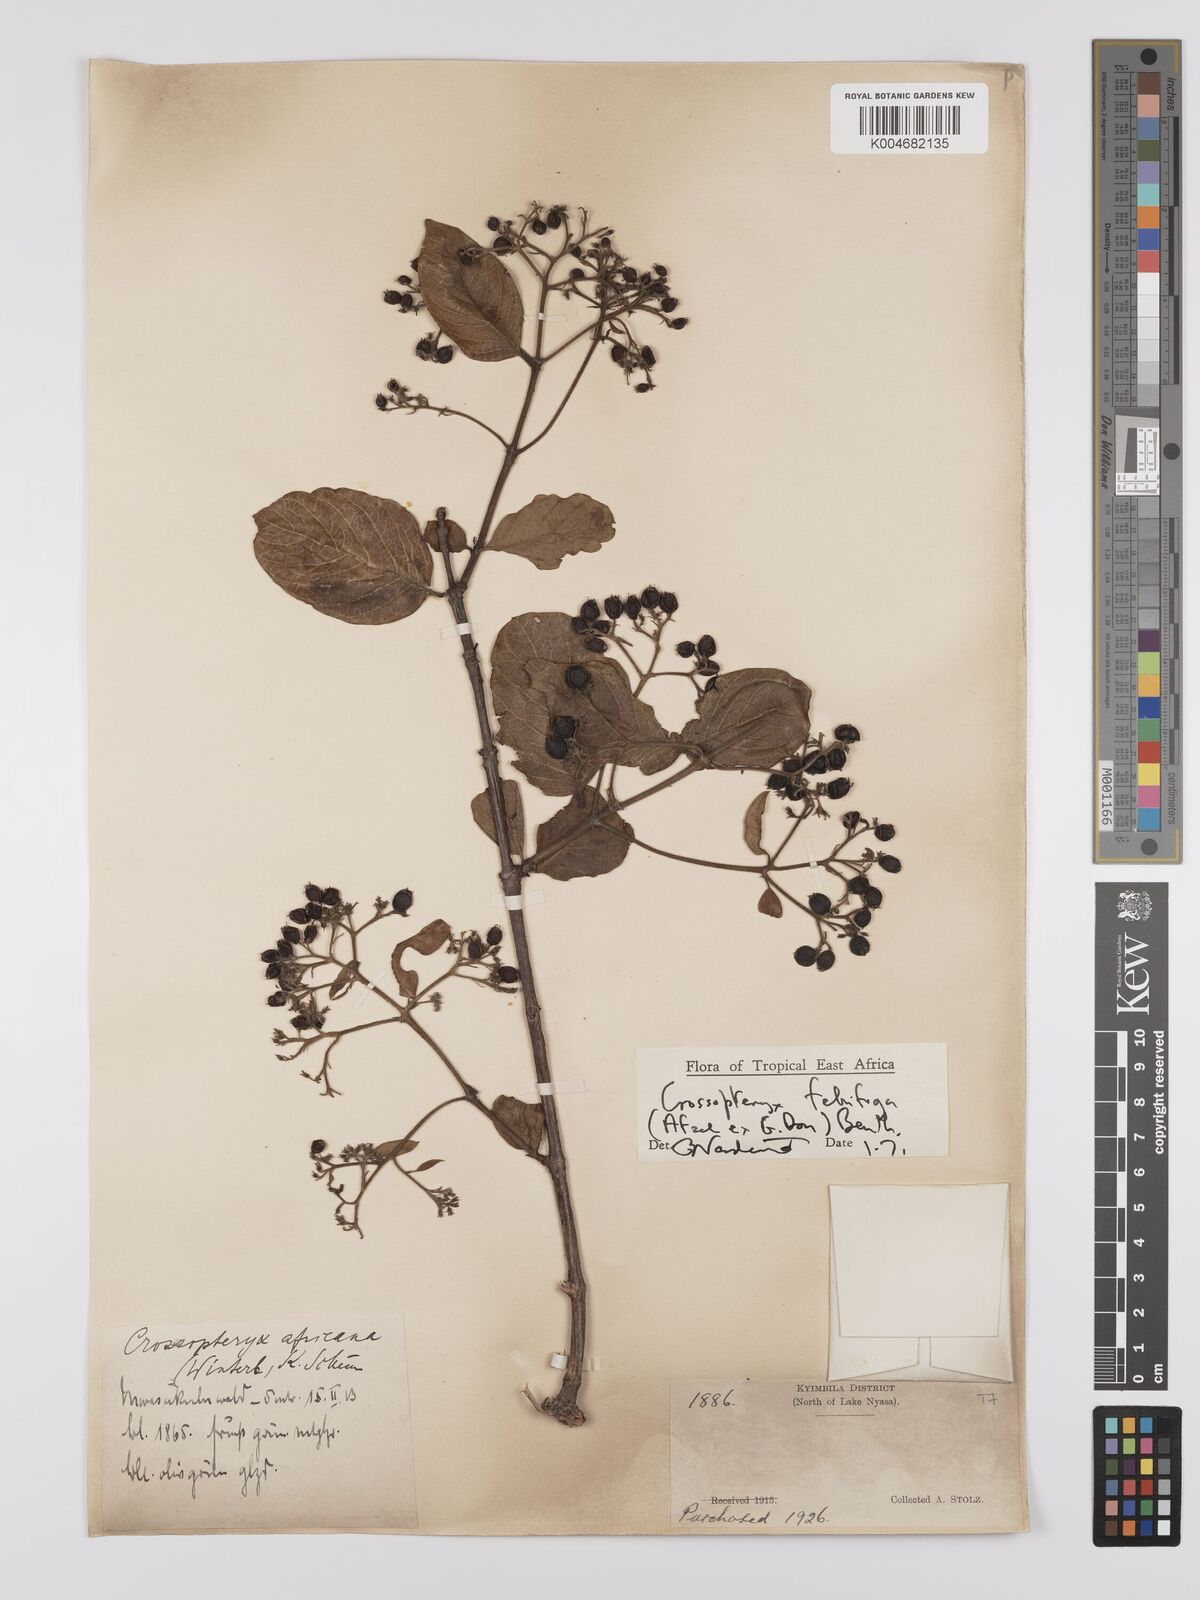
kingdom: Plantae
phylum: Tracheophyta
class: Magnoliopsida
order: Gentianales
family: Rubiaceae
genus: Crossopteryx
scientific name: Crossopteryx febrifuga
